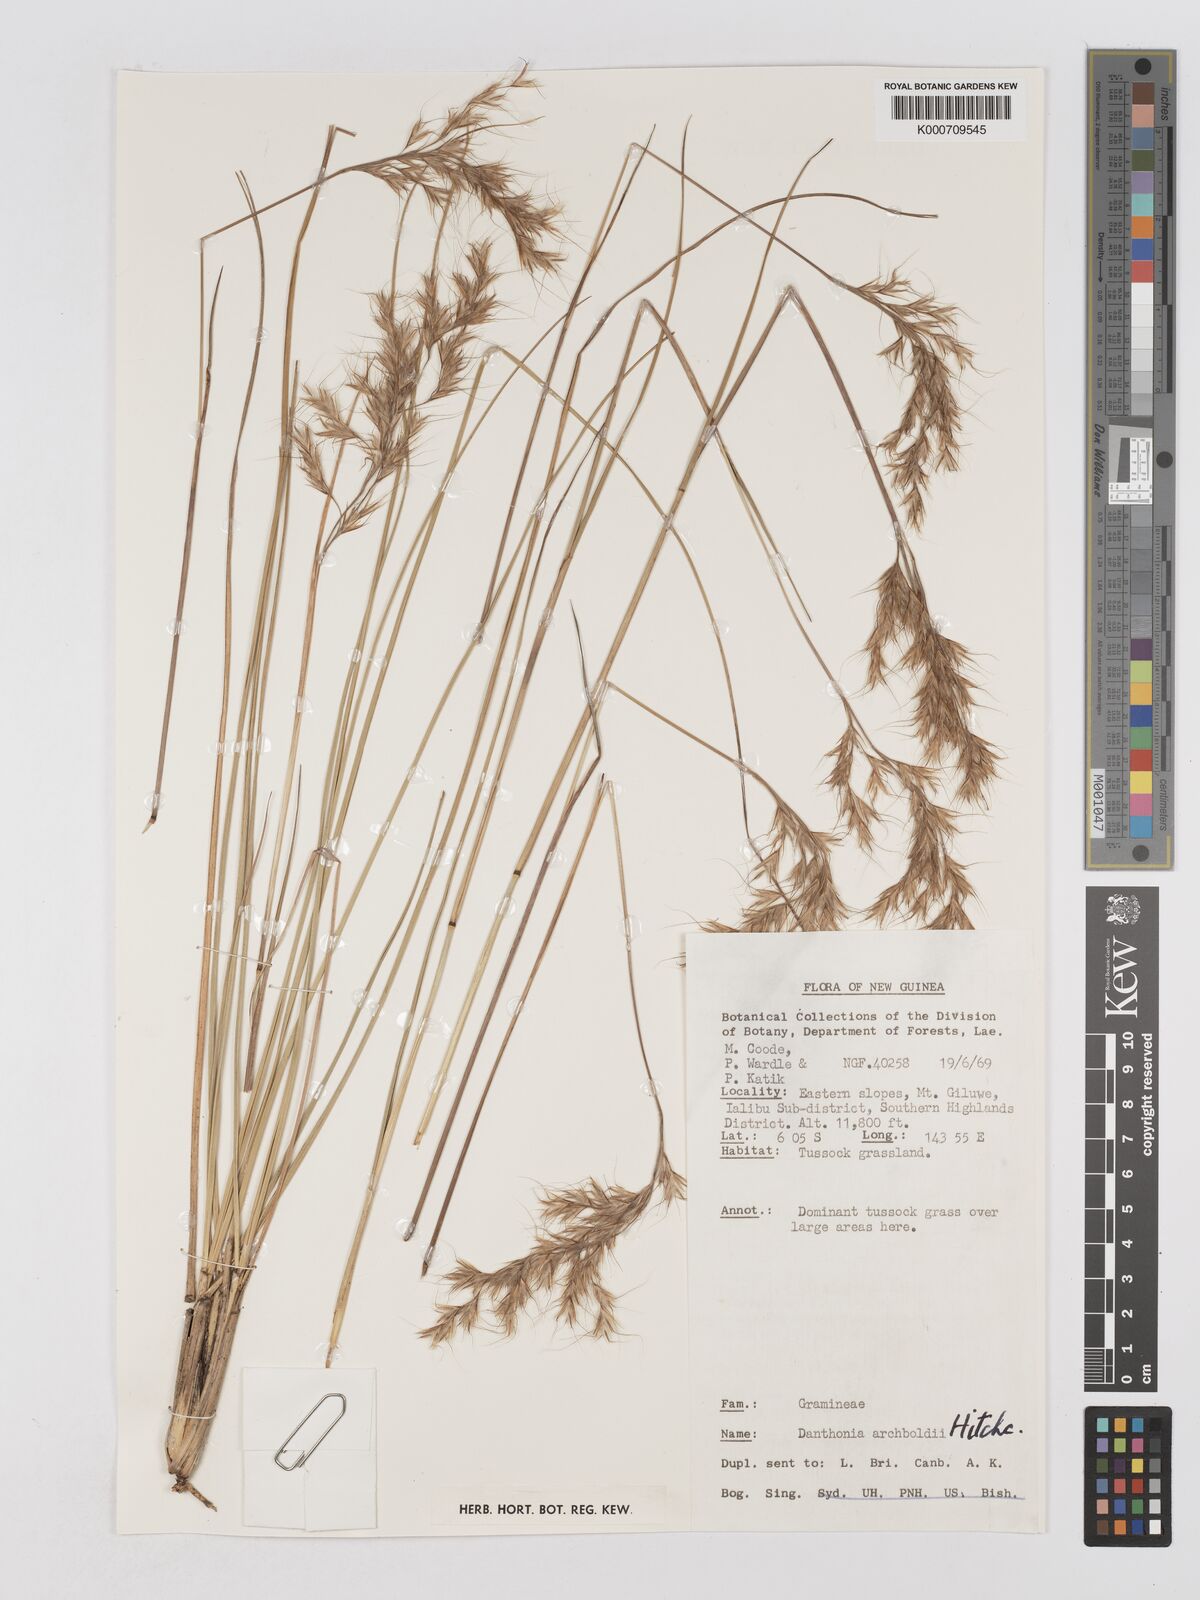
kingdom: Plantae
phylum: Tracheophyta
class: Liliopsida
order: Poales
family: Poaceae
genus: Chimaerochloa
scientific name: Chimaerochloa archboldii
